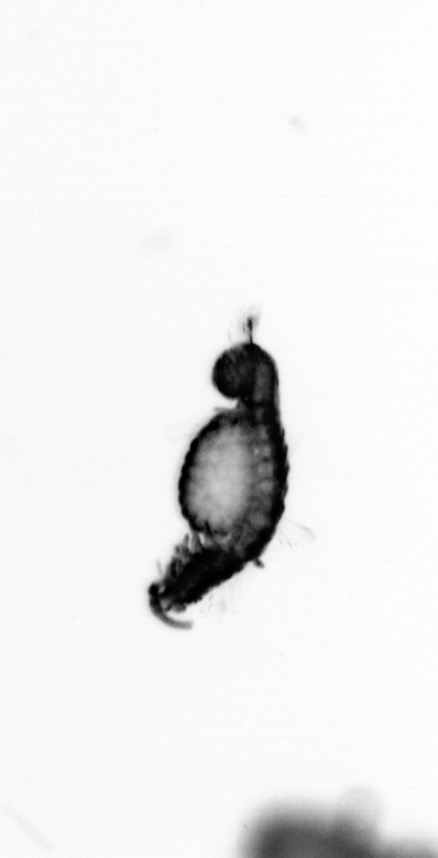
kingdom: Animalia
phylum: Annelida
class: Polychaeta
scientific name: Polychaeta
